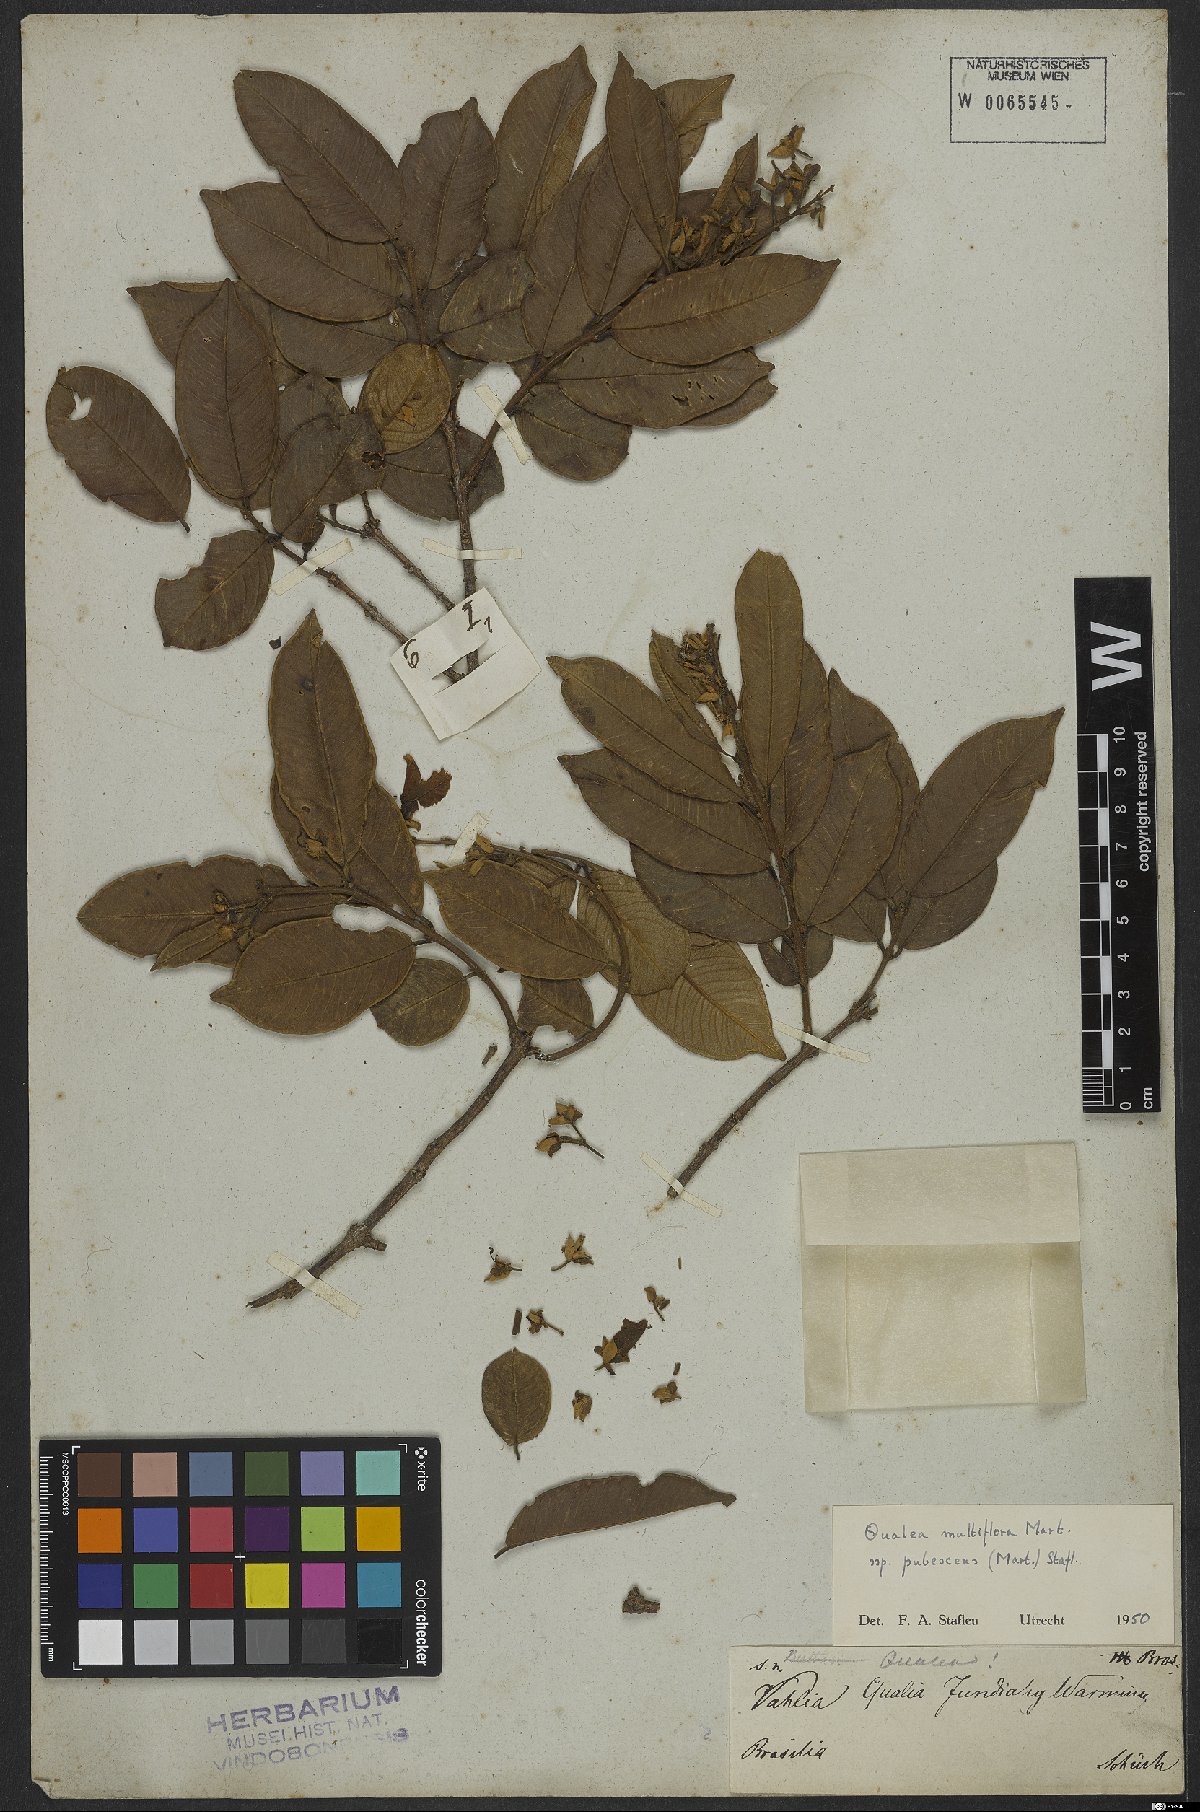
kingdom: Plantae
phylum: Tracheophyta
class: Magnoliopsida
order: Myrtales
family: Vochysiaceae
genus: Qualea
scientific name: Qualea multiflora
